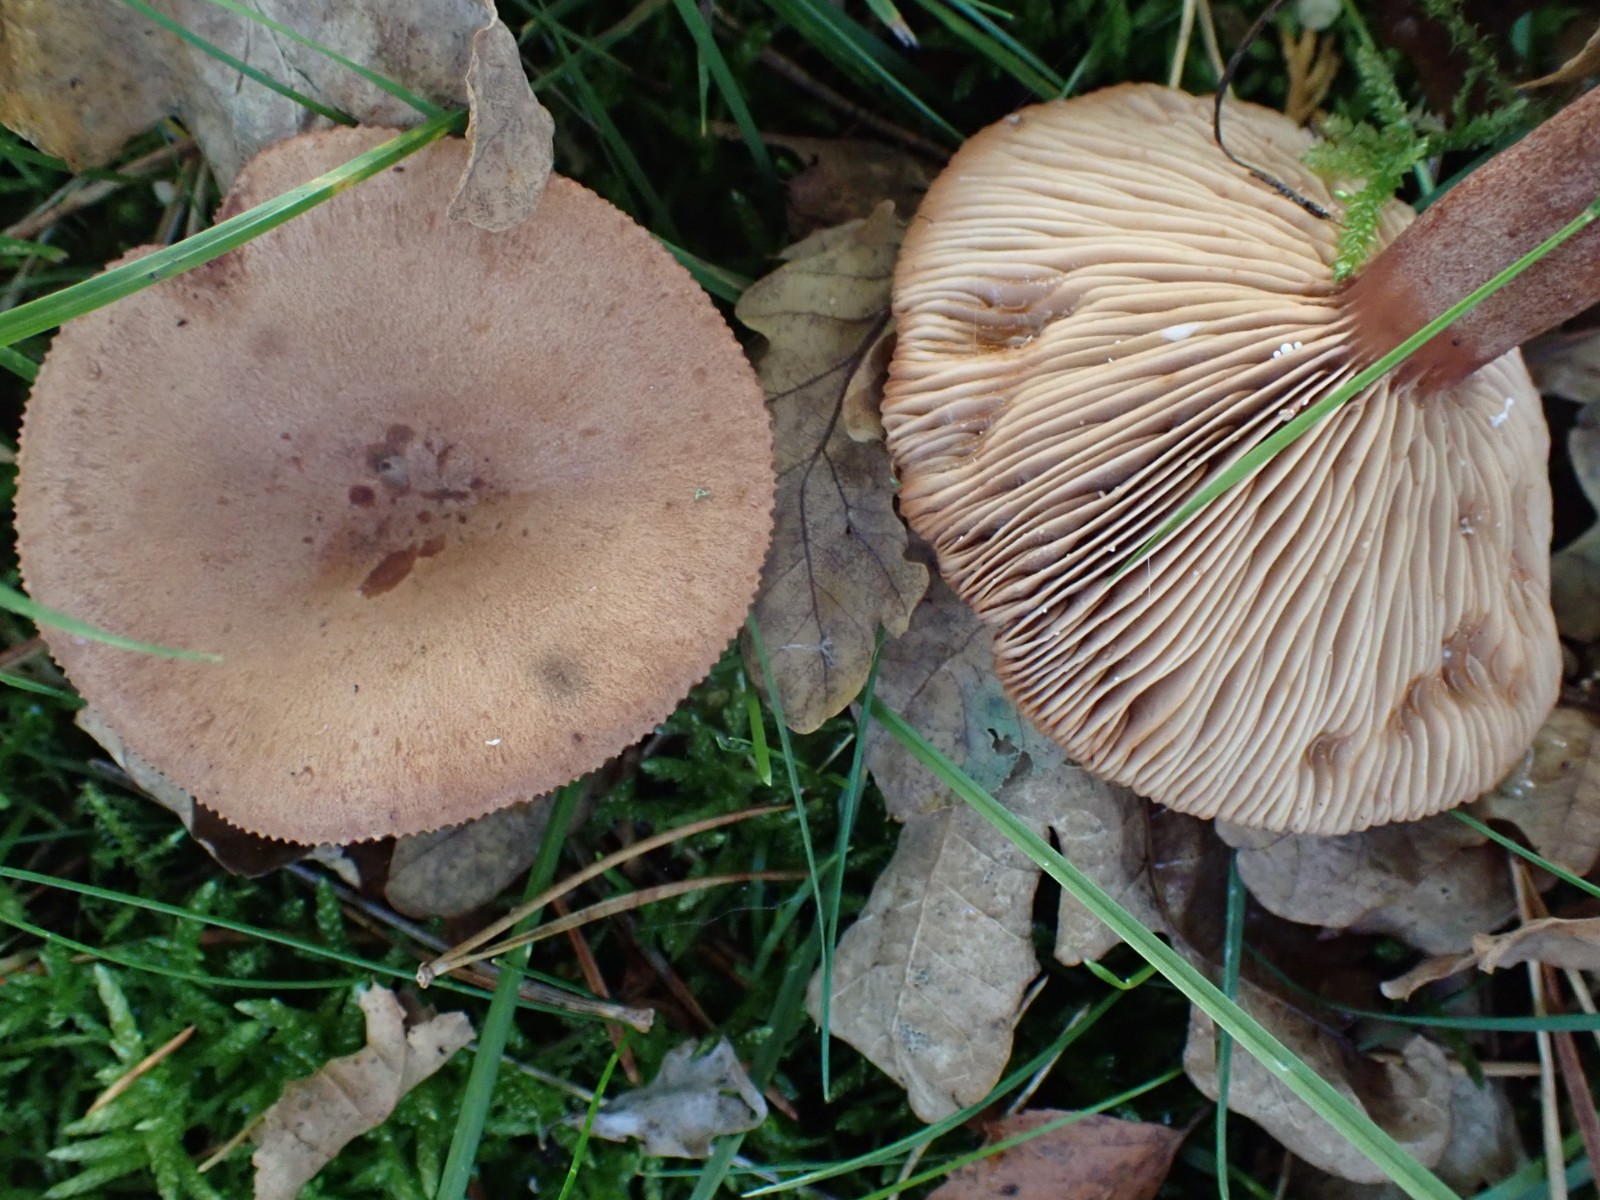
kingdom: Fungi
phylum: Basidiomycota
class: Agaricomycetes
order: Russulales
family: Russulaceae
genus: Lactarius
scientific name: Lactarius quietus
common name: ege-mælkehat
